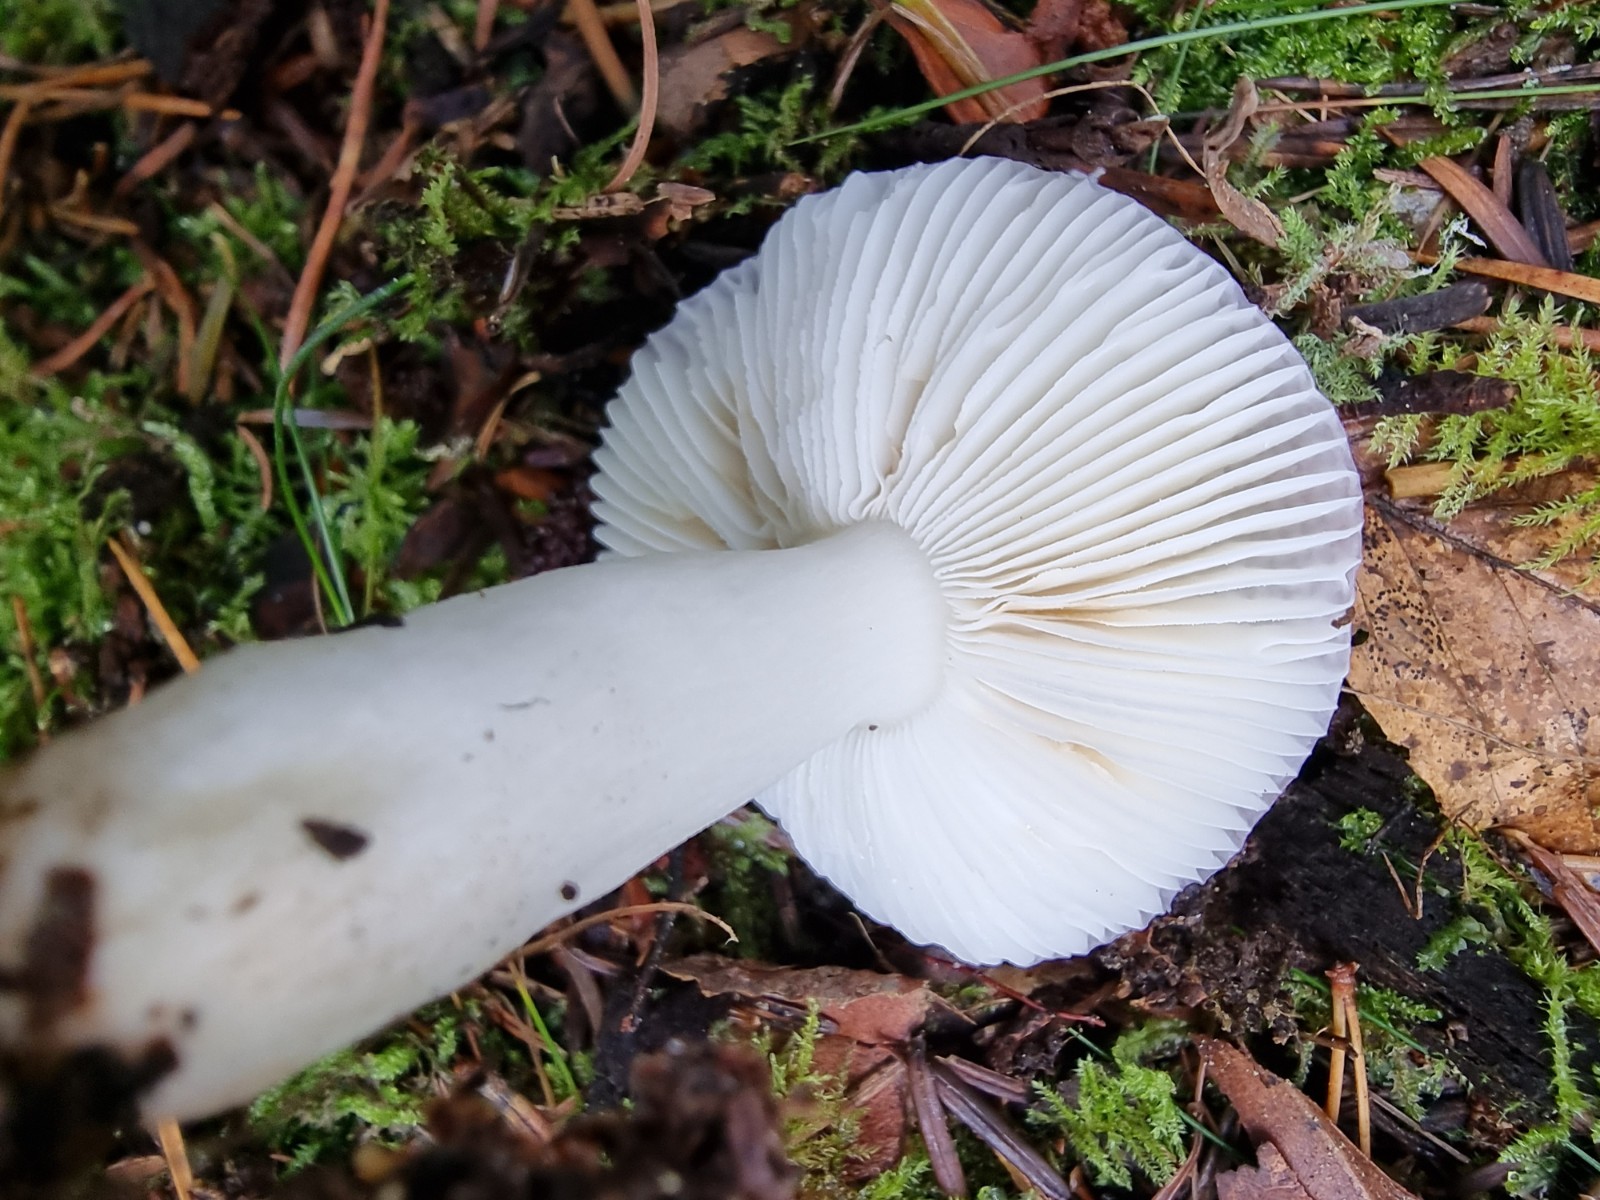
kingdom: Fungi
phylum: Basidiomycota
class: Agaricomycetes
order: Russulales
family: Russulaceae
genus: Russula
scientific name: Russula fragilis
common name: savbladet skørhat
